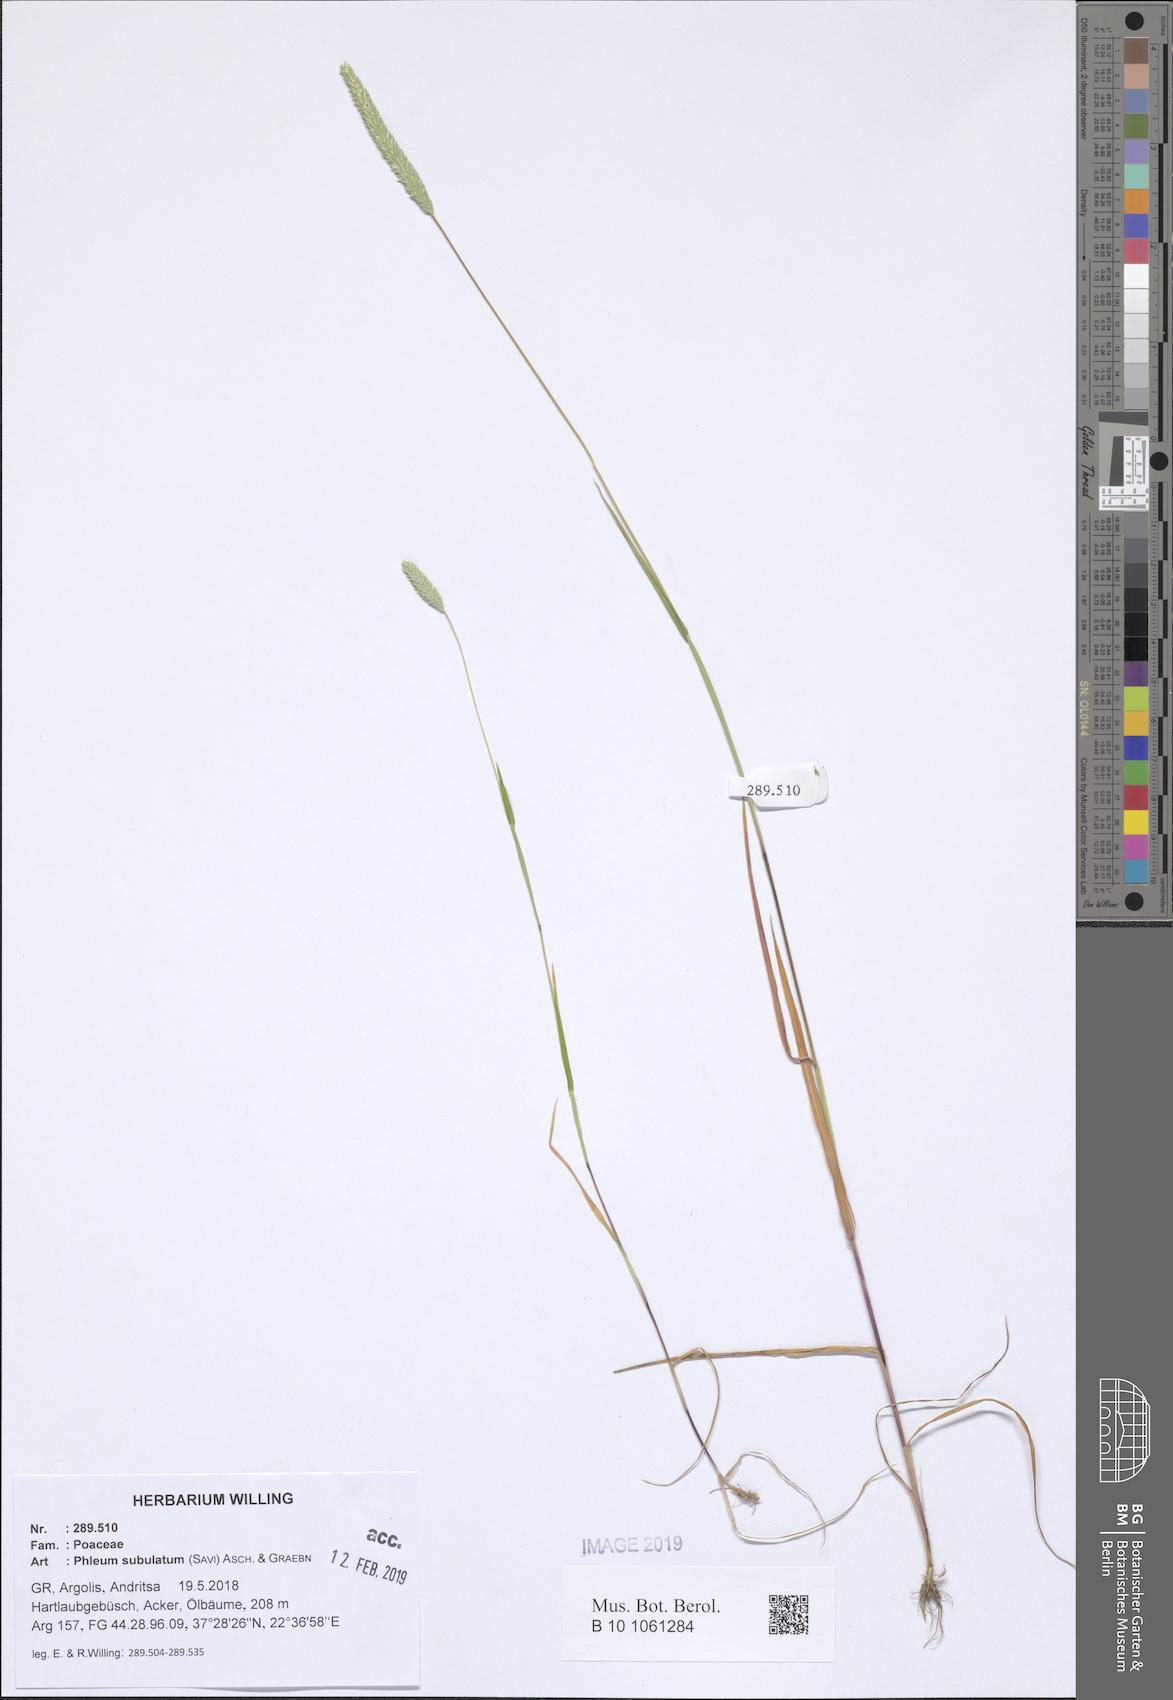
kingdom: Plantae
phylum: Tracheophyta
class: Liliopsida
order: Poales
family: Poaceae
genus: Phleum
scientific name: Phleum subulatum
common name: Italian timothy
